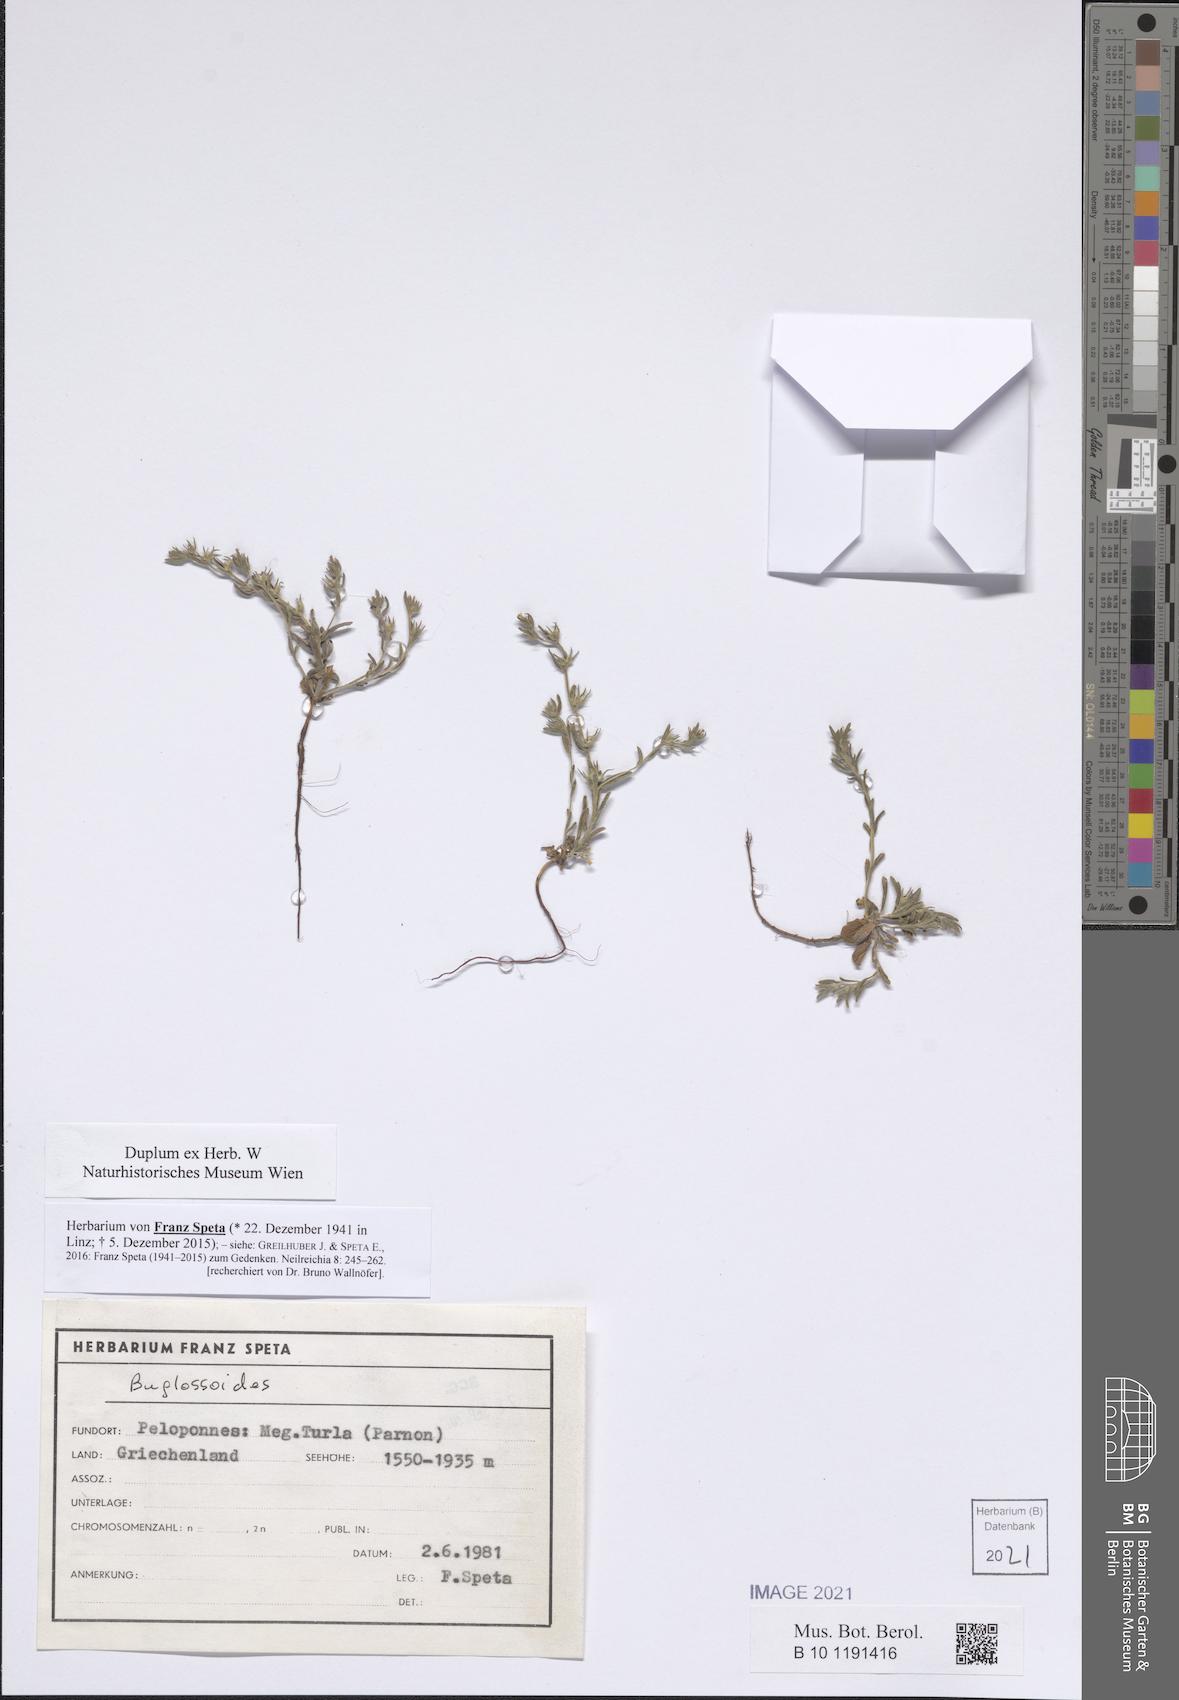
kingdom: Plantae
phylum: Tracheophyta
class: Magnoliopsida
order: Boraginales
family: Boraginaceae
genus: Buglossoides
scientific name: Buglossoides
